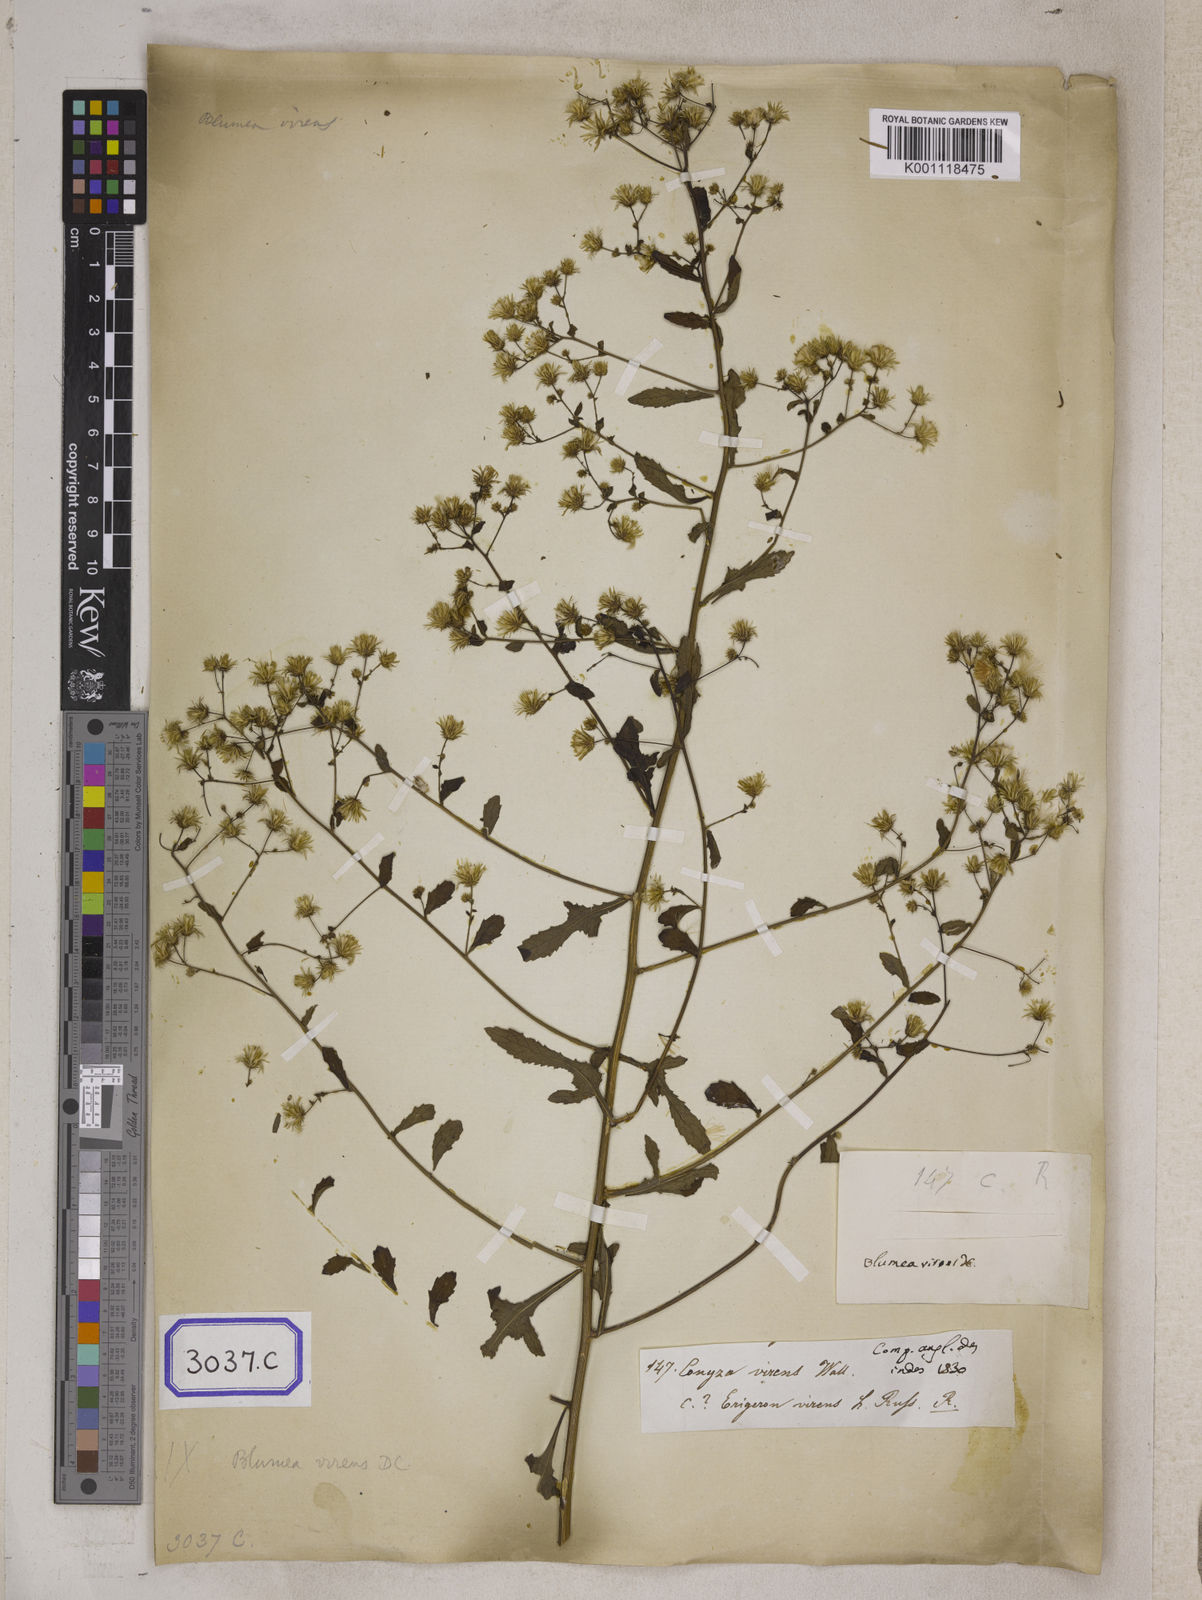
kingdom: Plantae
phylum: Tracheophyta
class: Magnoliopsida
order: Asterales
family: Asteraceae
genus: Blumea
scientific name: Blumea virens
